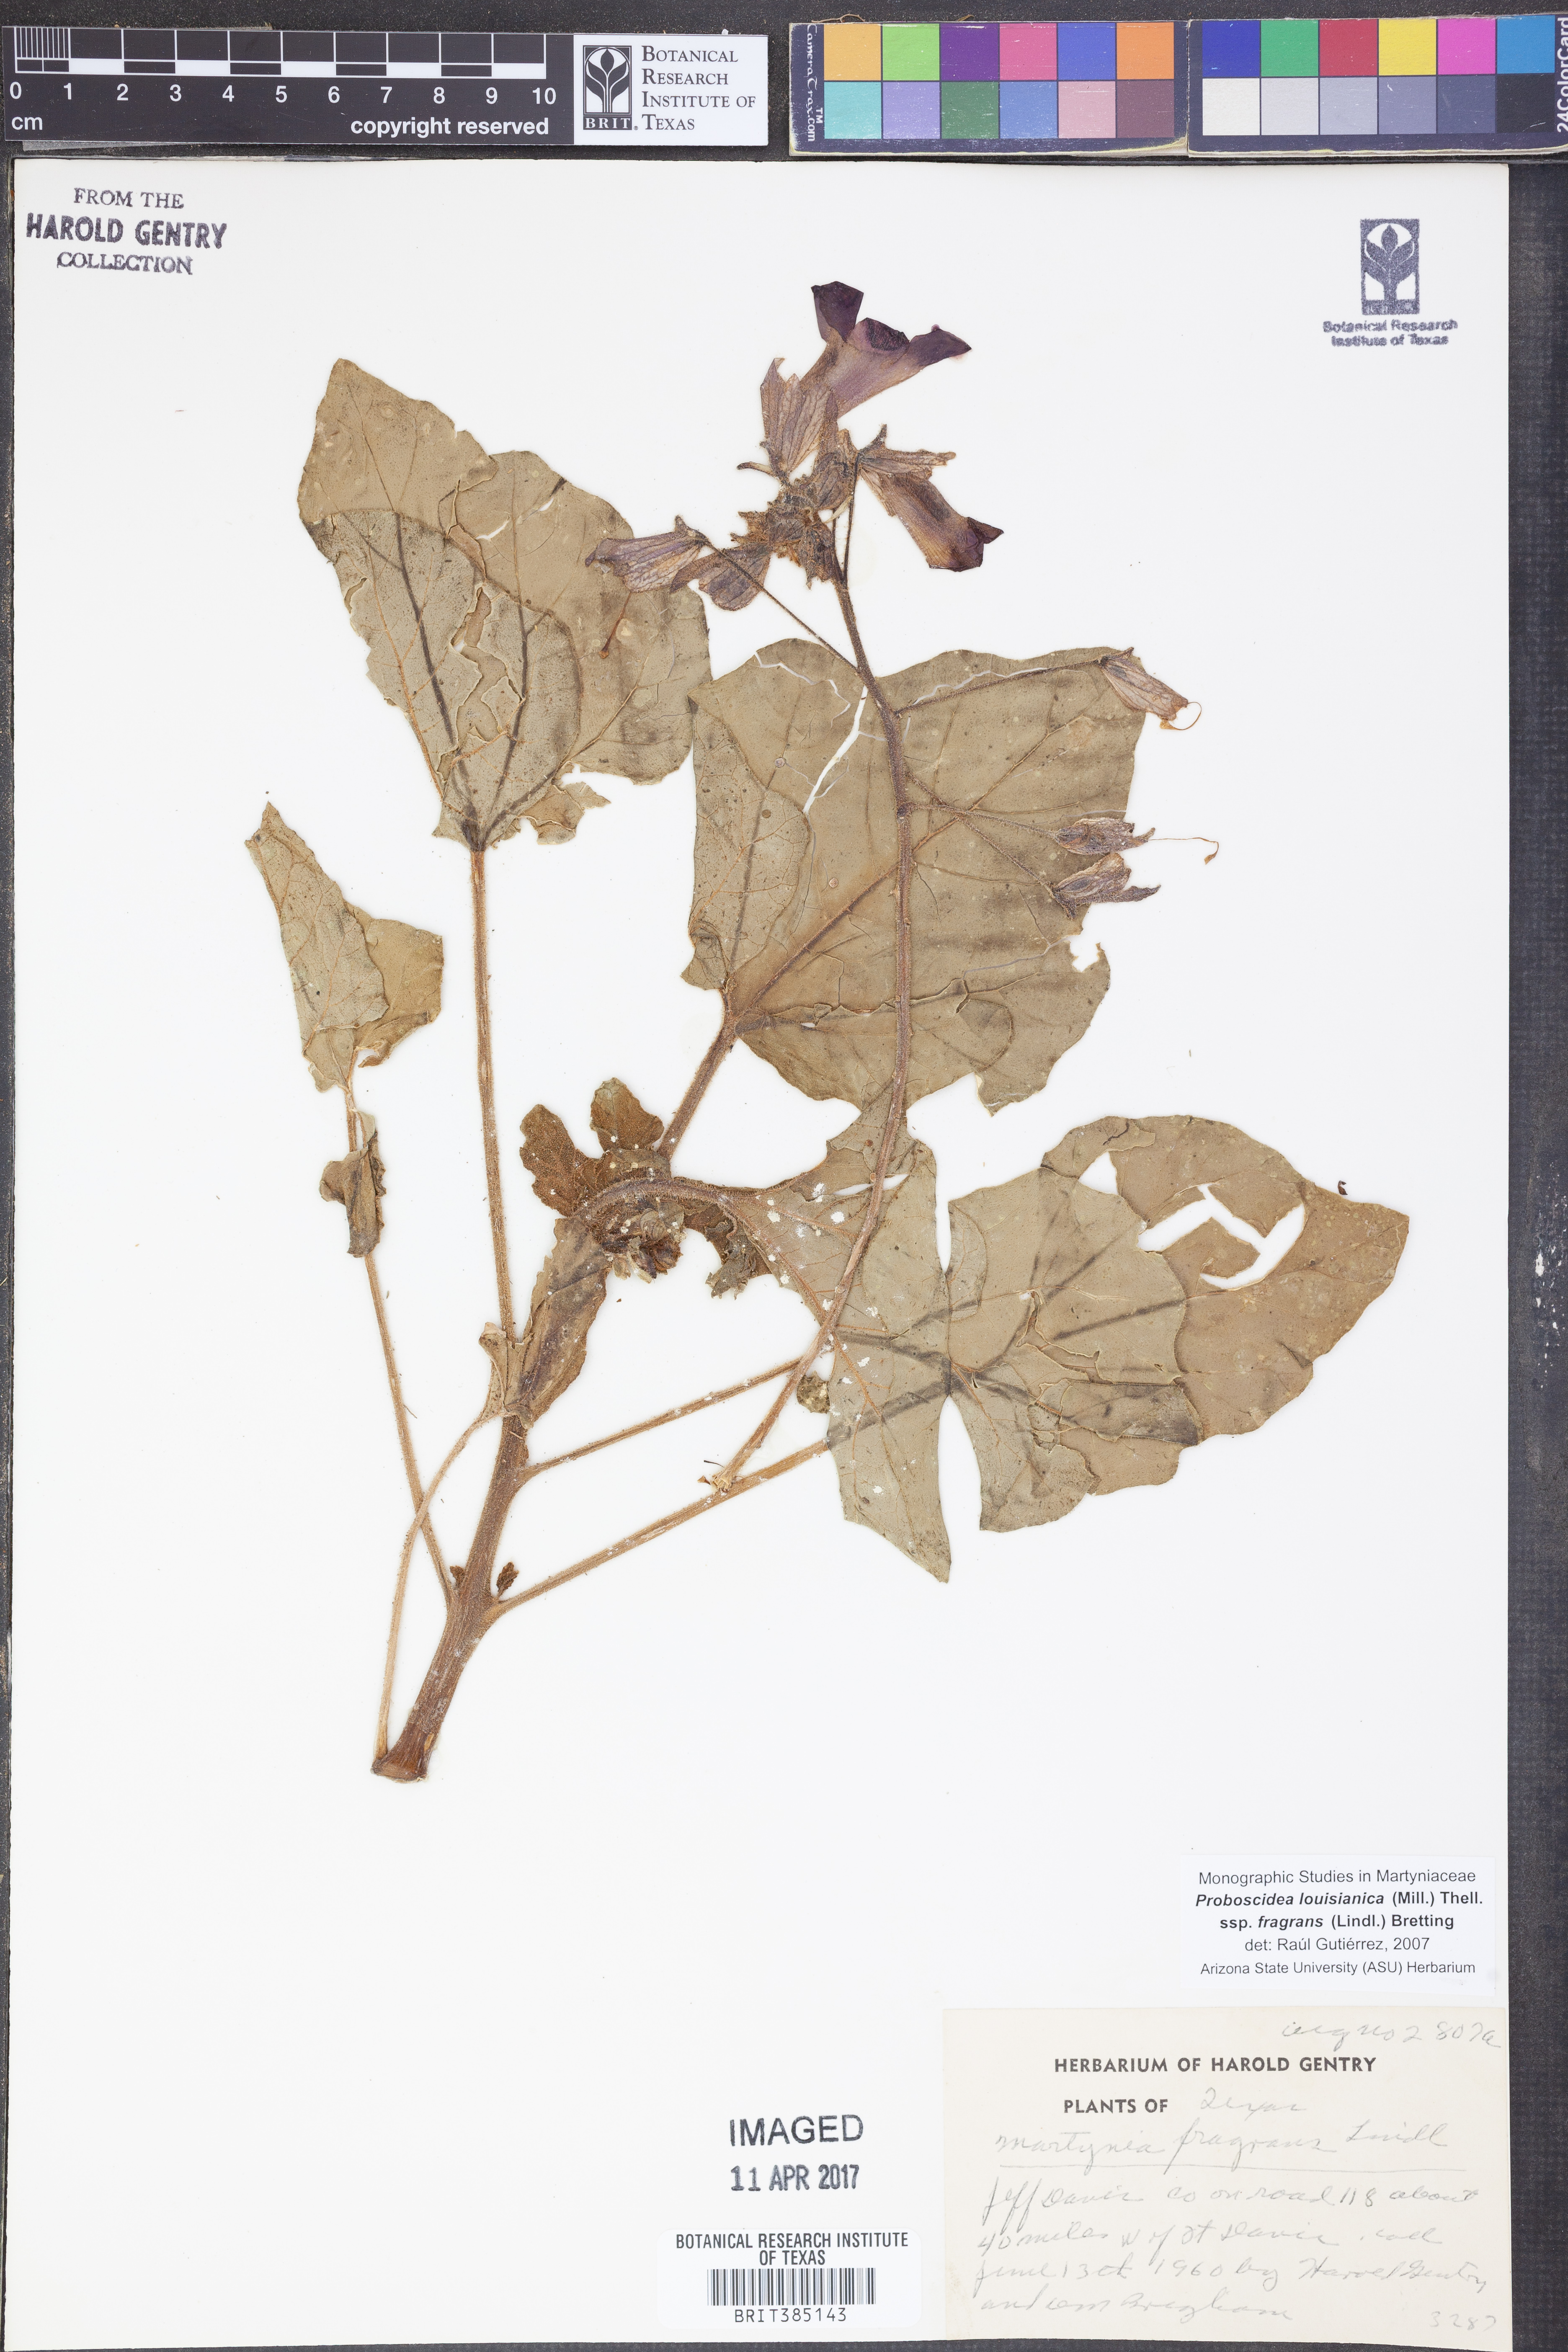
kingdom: Plantae
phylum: Tracheophyta
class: Magnoliopsida
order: Lamiales
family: Martyniaceae
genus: Proboscidea
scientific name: Proboscidea louisianica
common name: Elephant tusks
